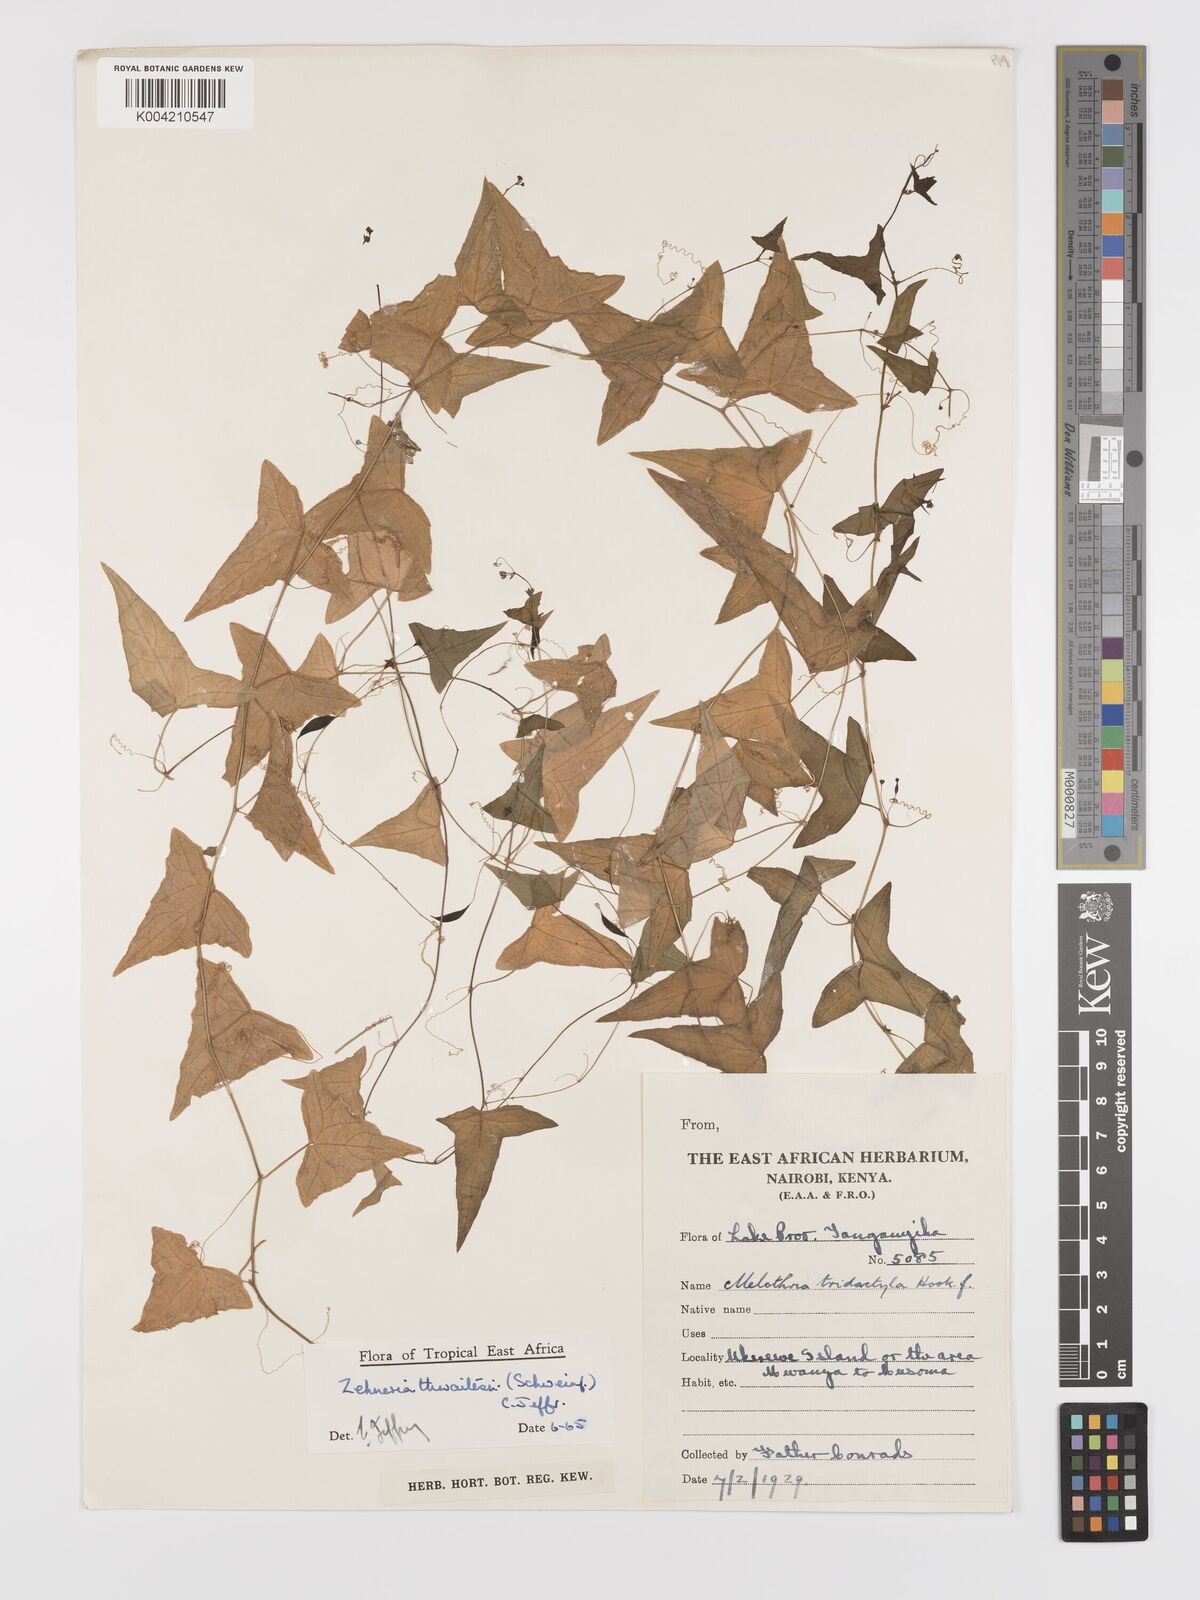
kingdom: Plantae
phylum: Tracheophyta
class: Magnoliopsida
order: Cucurbitales
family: Cucurbitaceae
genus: Zehneria
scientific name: Zehneria thwaitesii
